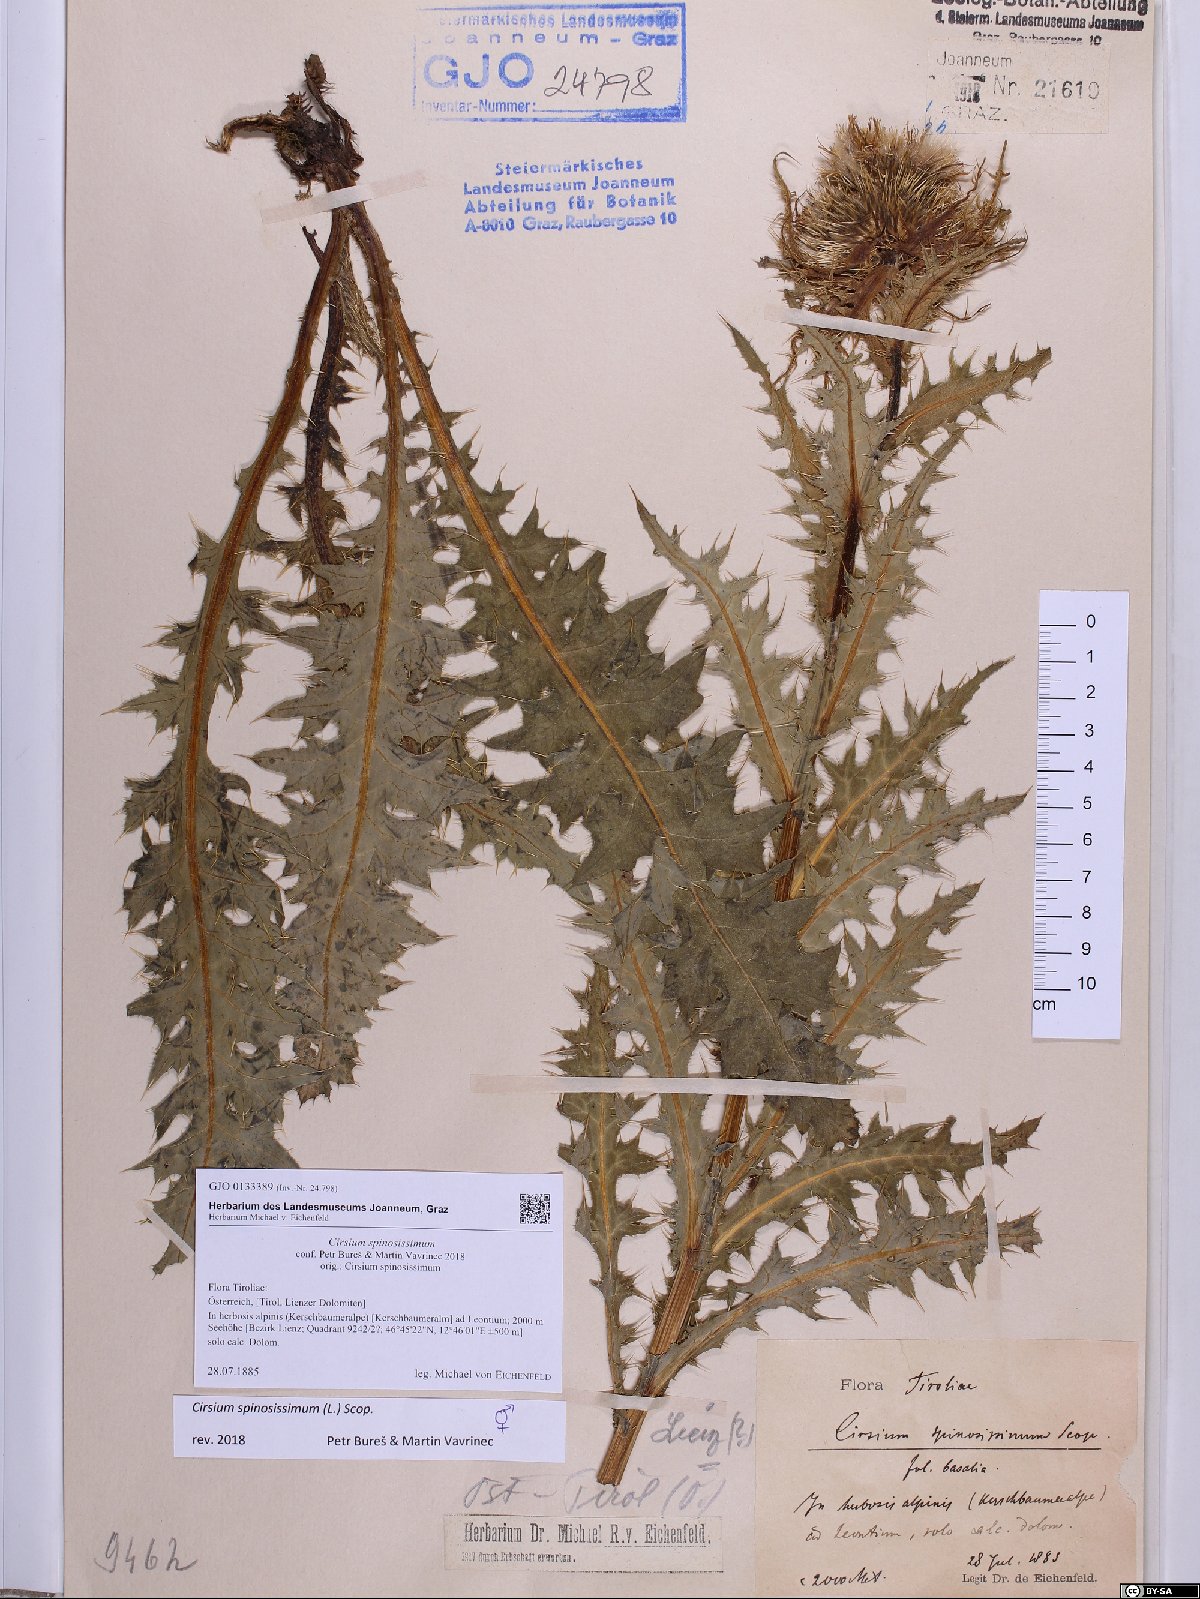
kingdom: Plantae
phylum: Tracheophyta
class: Magnoliopsida
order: Asterales
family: Asteraceae
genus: Cirsium
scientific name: Cirsium spinosissimum
